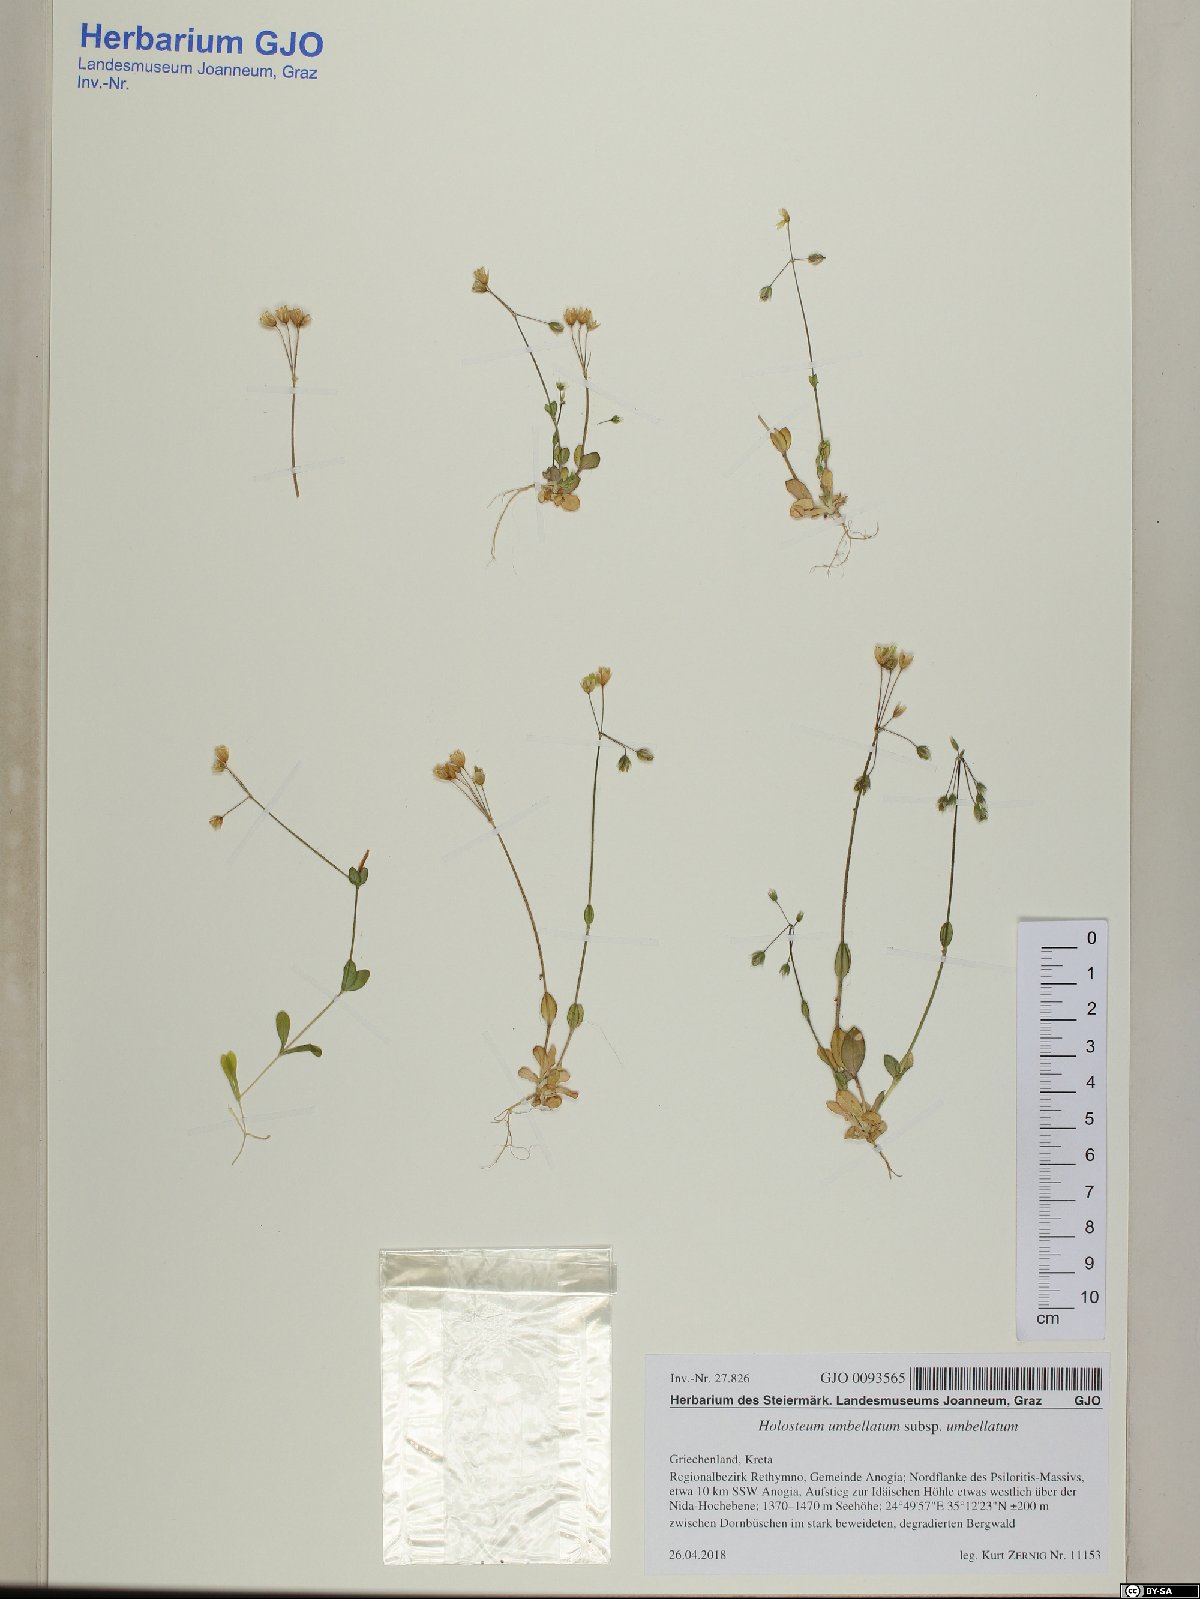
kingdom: Plantae
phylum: Tracheophyta
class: Magnoliopsida
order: Caryophyllales
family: Caryophyllaceae
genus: Holosteum
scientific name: Holosteum umbellatum
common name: Jagged chickweed
